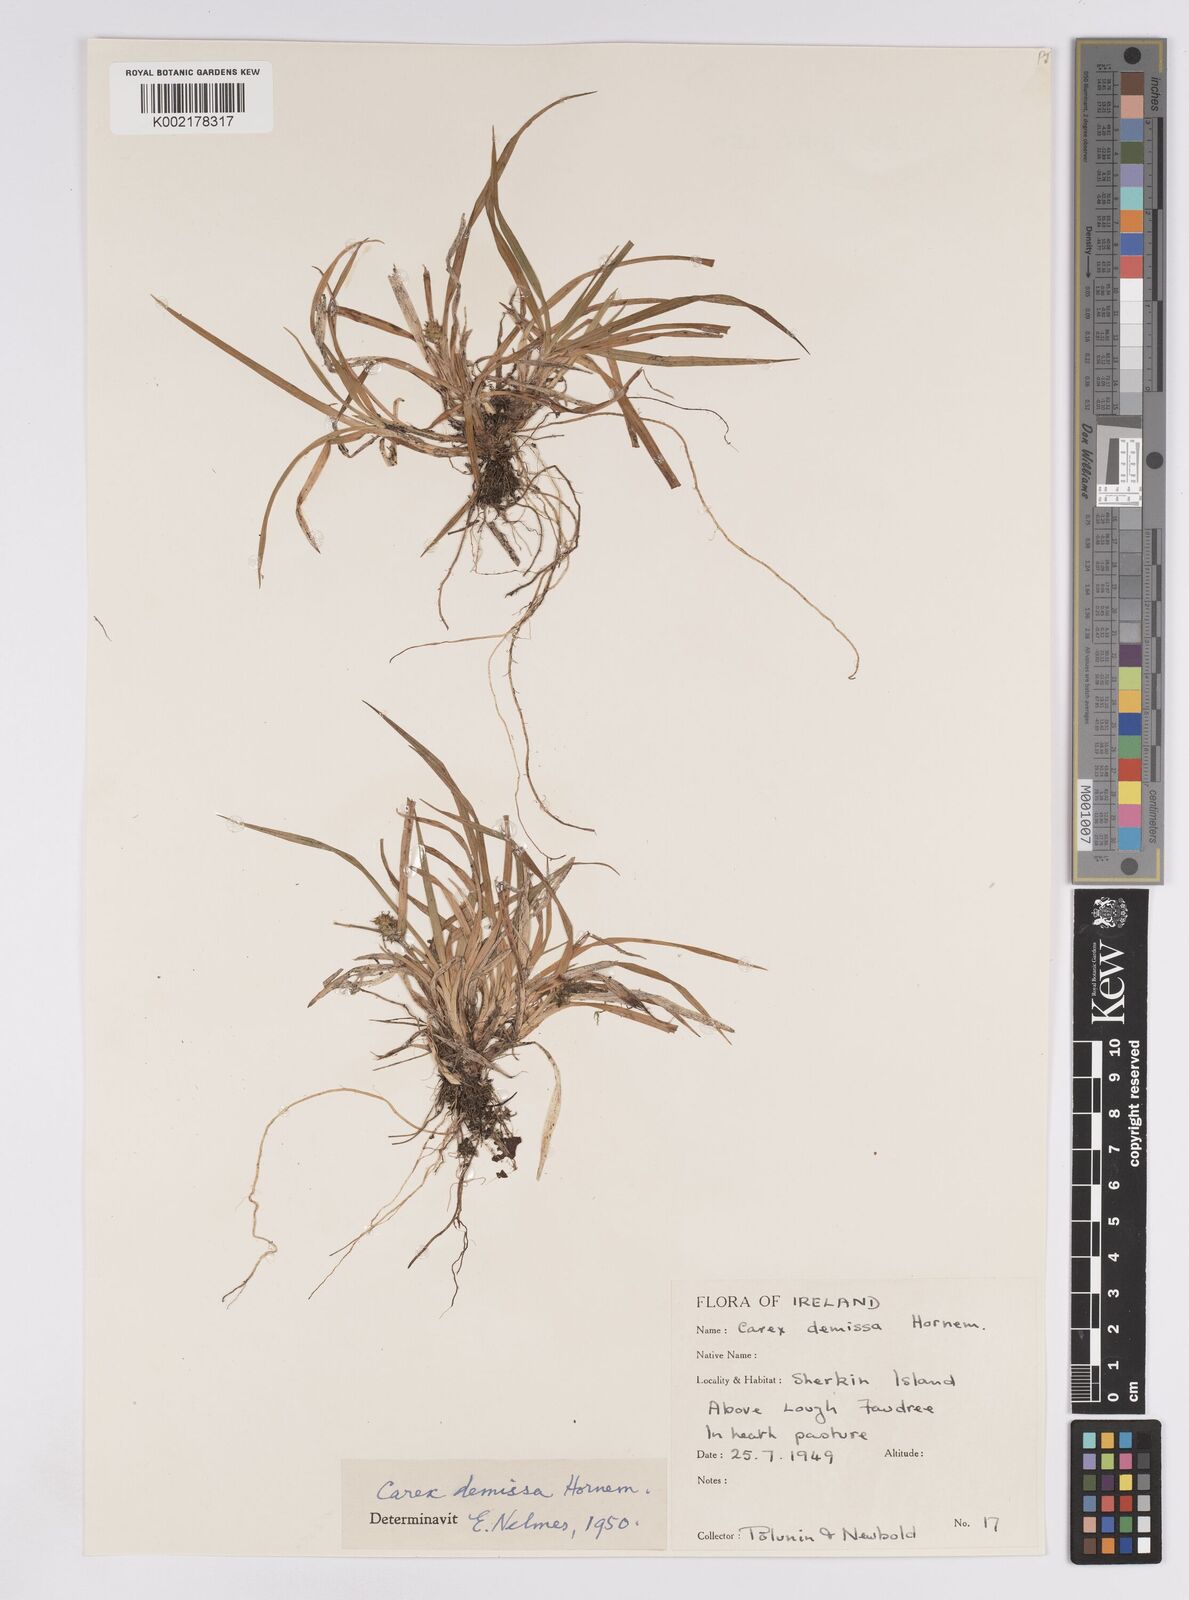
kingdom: Plantae
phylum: Tracheophyta
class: Liliopsida
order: Poales
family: Cyperaceae
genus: Carex
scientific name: Carex demissa
